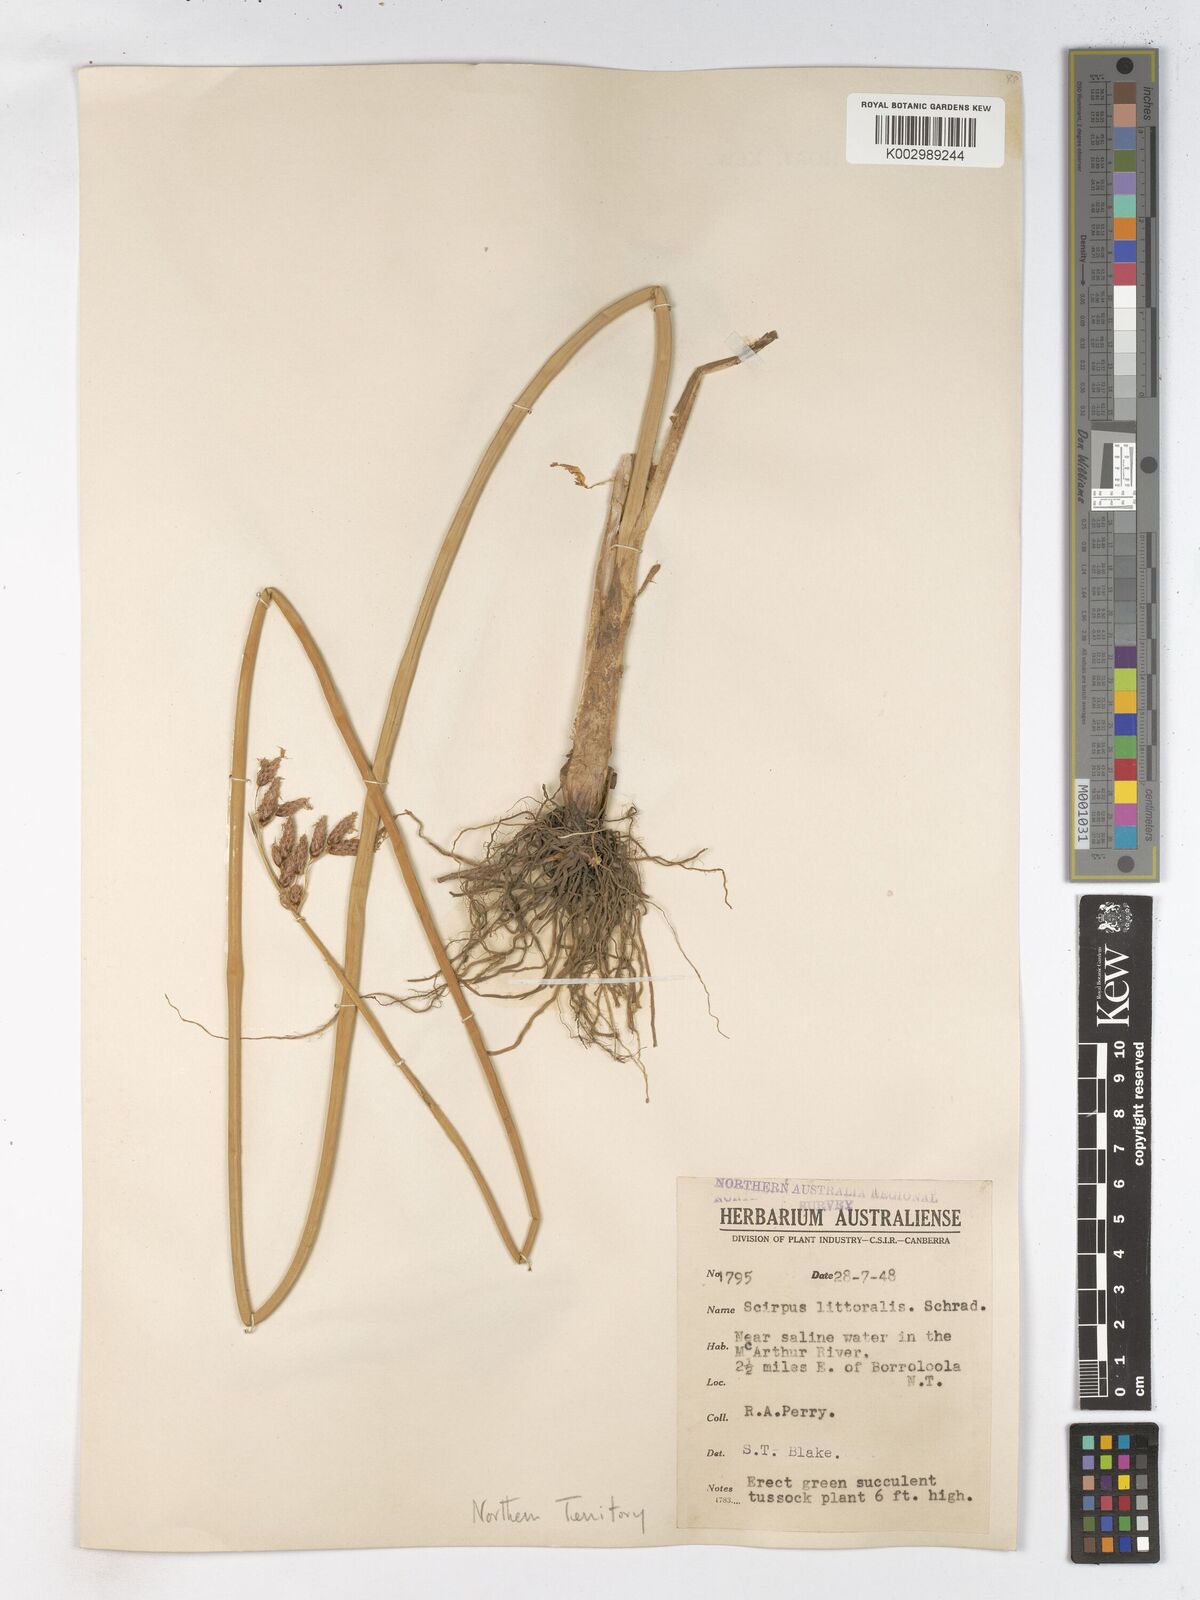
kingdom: Plantae
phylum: Tracheophyta
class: Liliopsida
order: Poales
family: Cyperaceae
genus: Schoenoplectus
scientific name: Schoenoplectus litoralis
